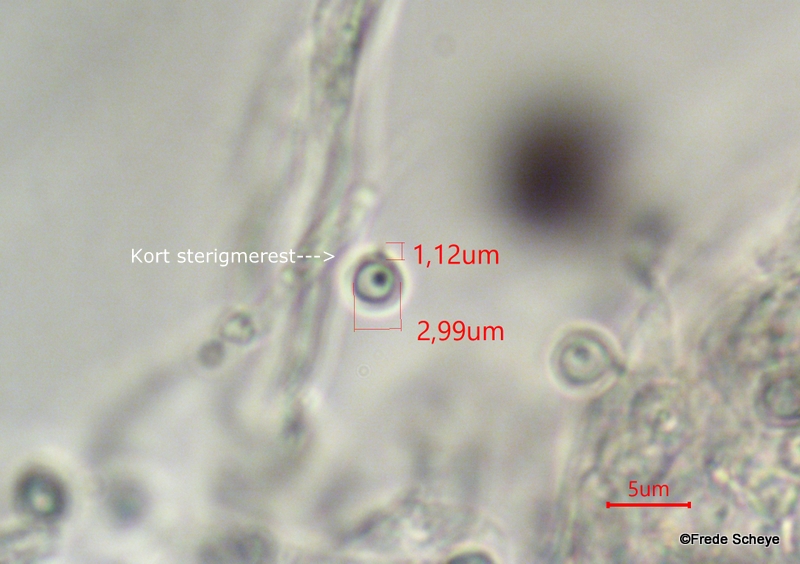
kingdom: Fungi
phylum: Basidiomycota
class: Agaricomycetes
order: Agaricales
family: Lycoperdaceae
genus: Bovista
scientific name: Bovista pusilla
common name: puslinge-bovist
